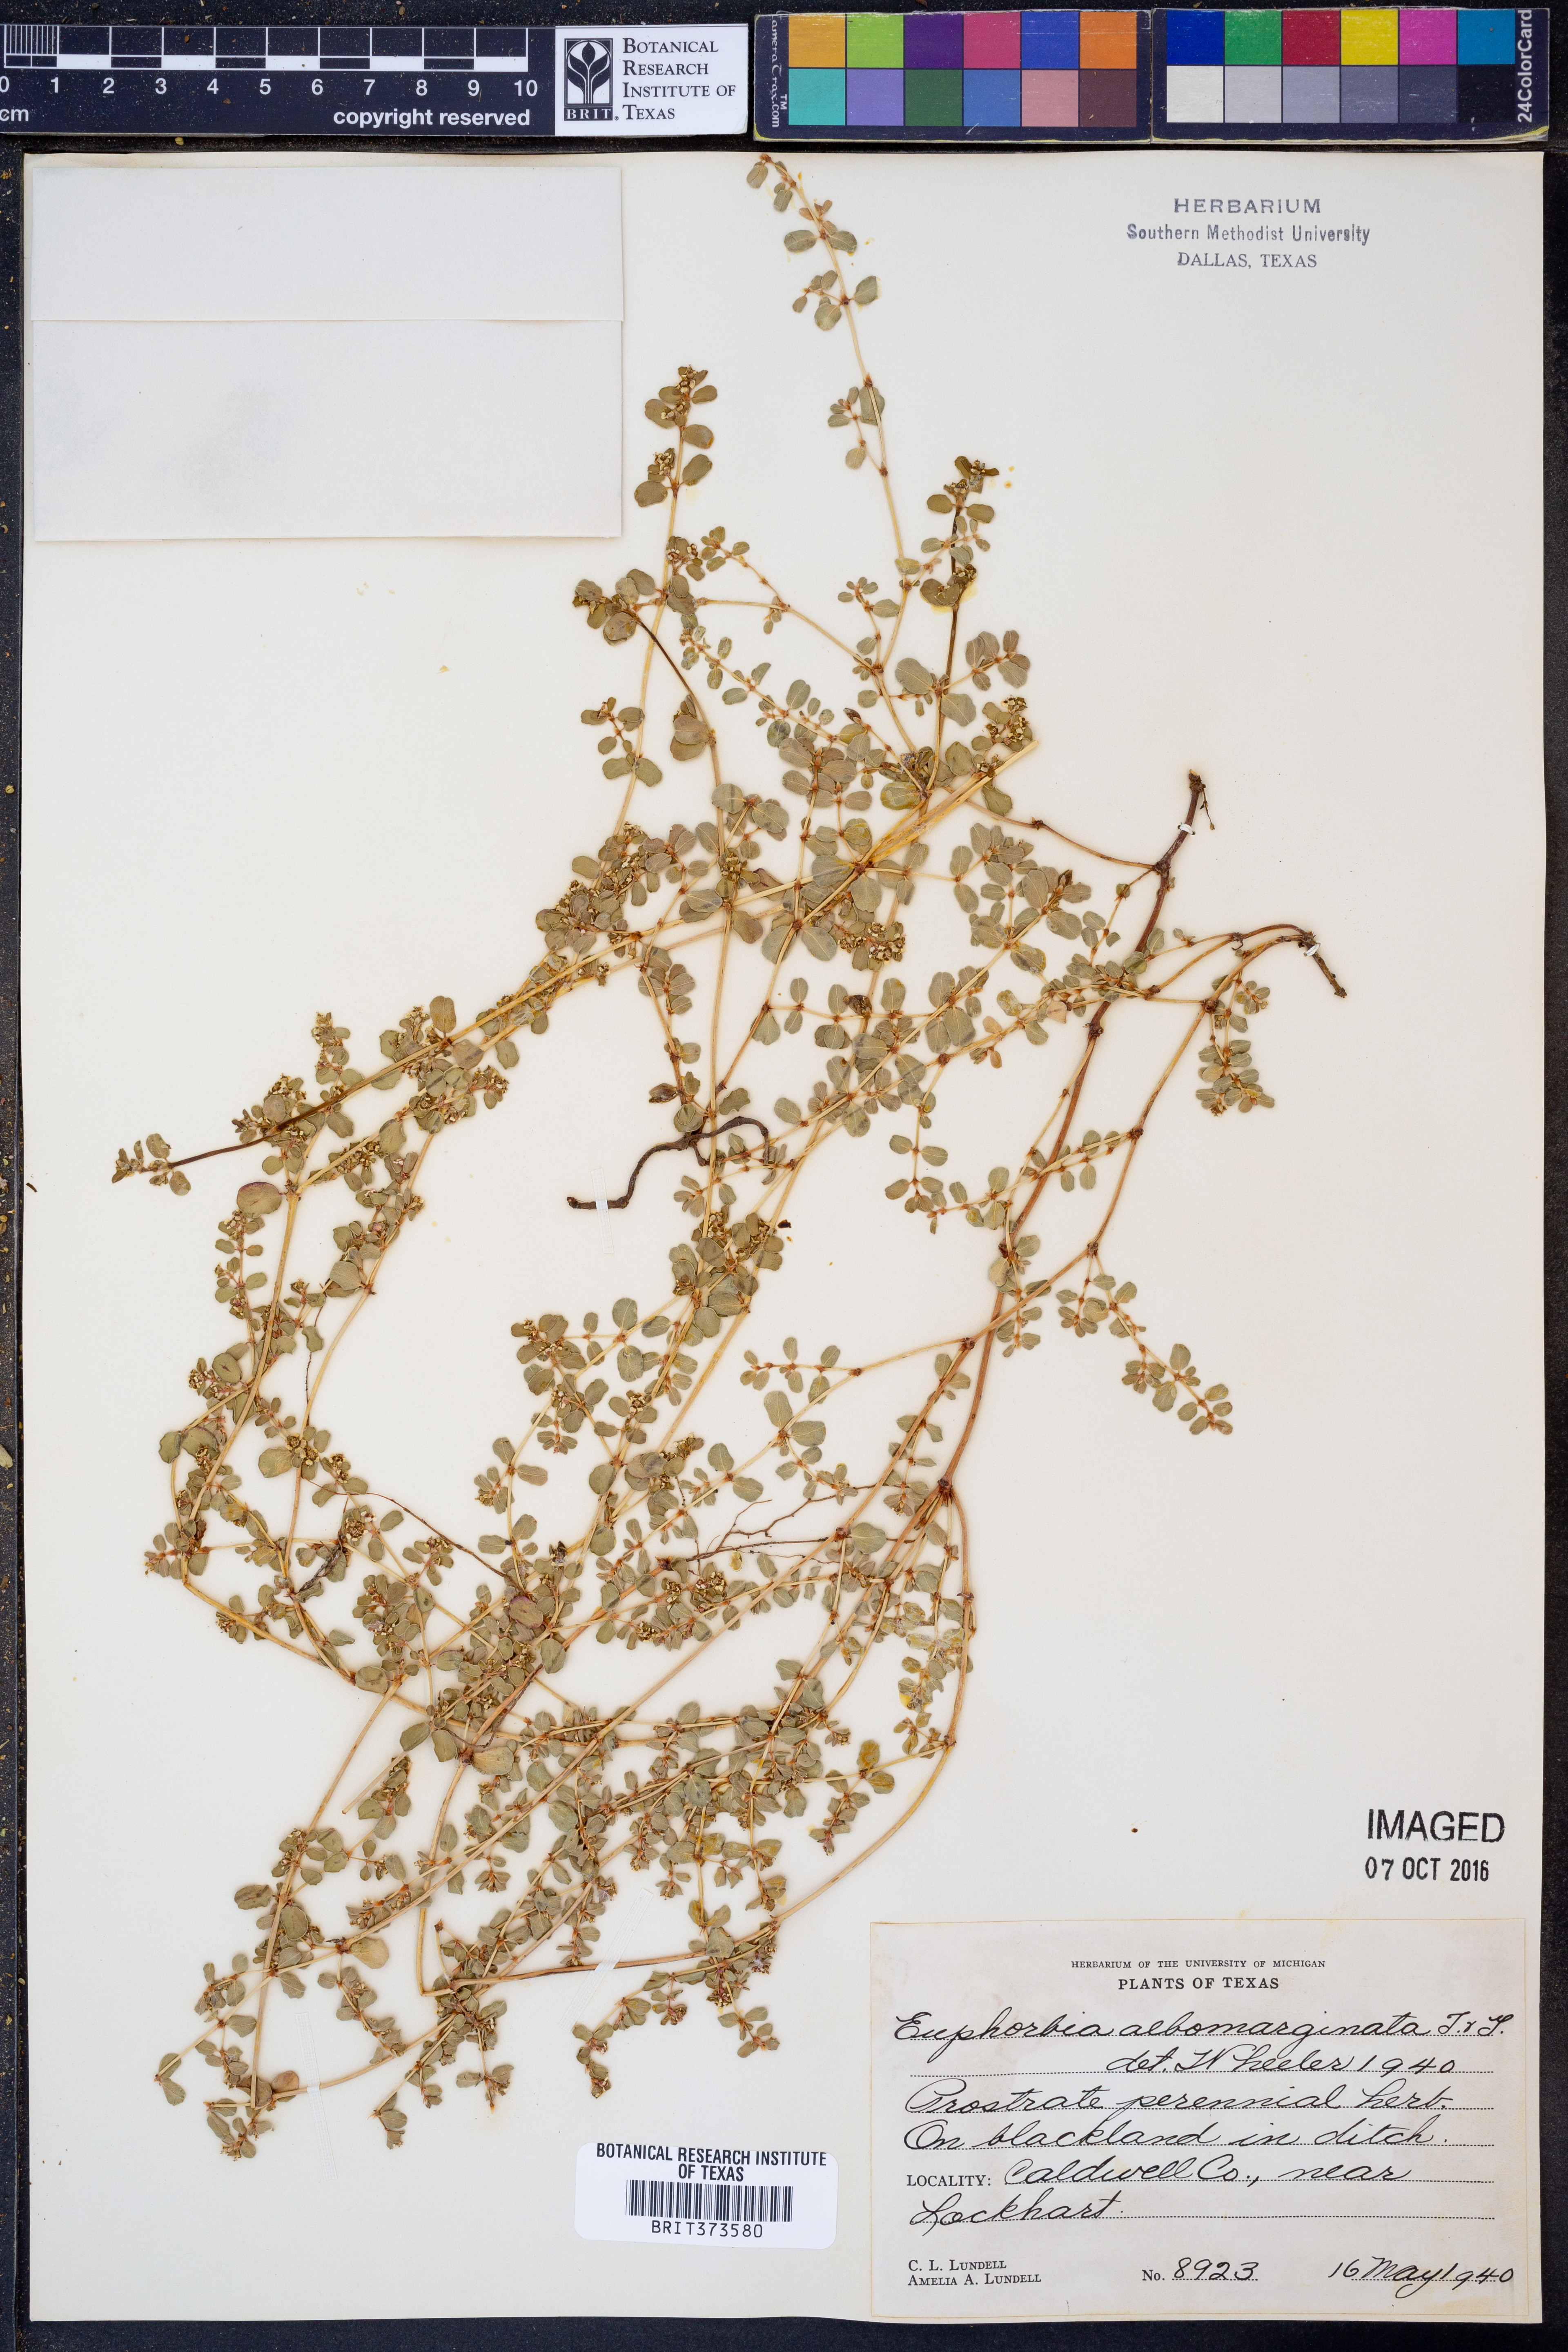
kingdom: Plantae
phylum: Tracheophyta
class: Magnoliopsida
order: Malpighiales
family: Euphorbiaceae
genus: Euphorbia
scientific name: Euphorbia albomarginata
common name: Whitemargin sandmat
